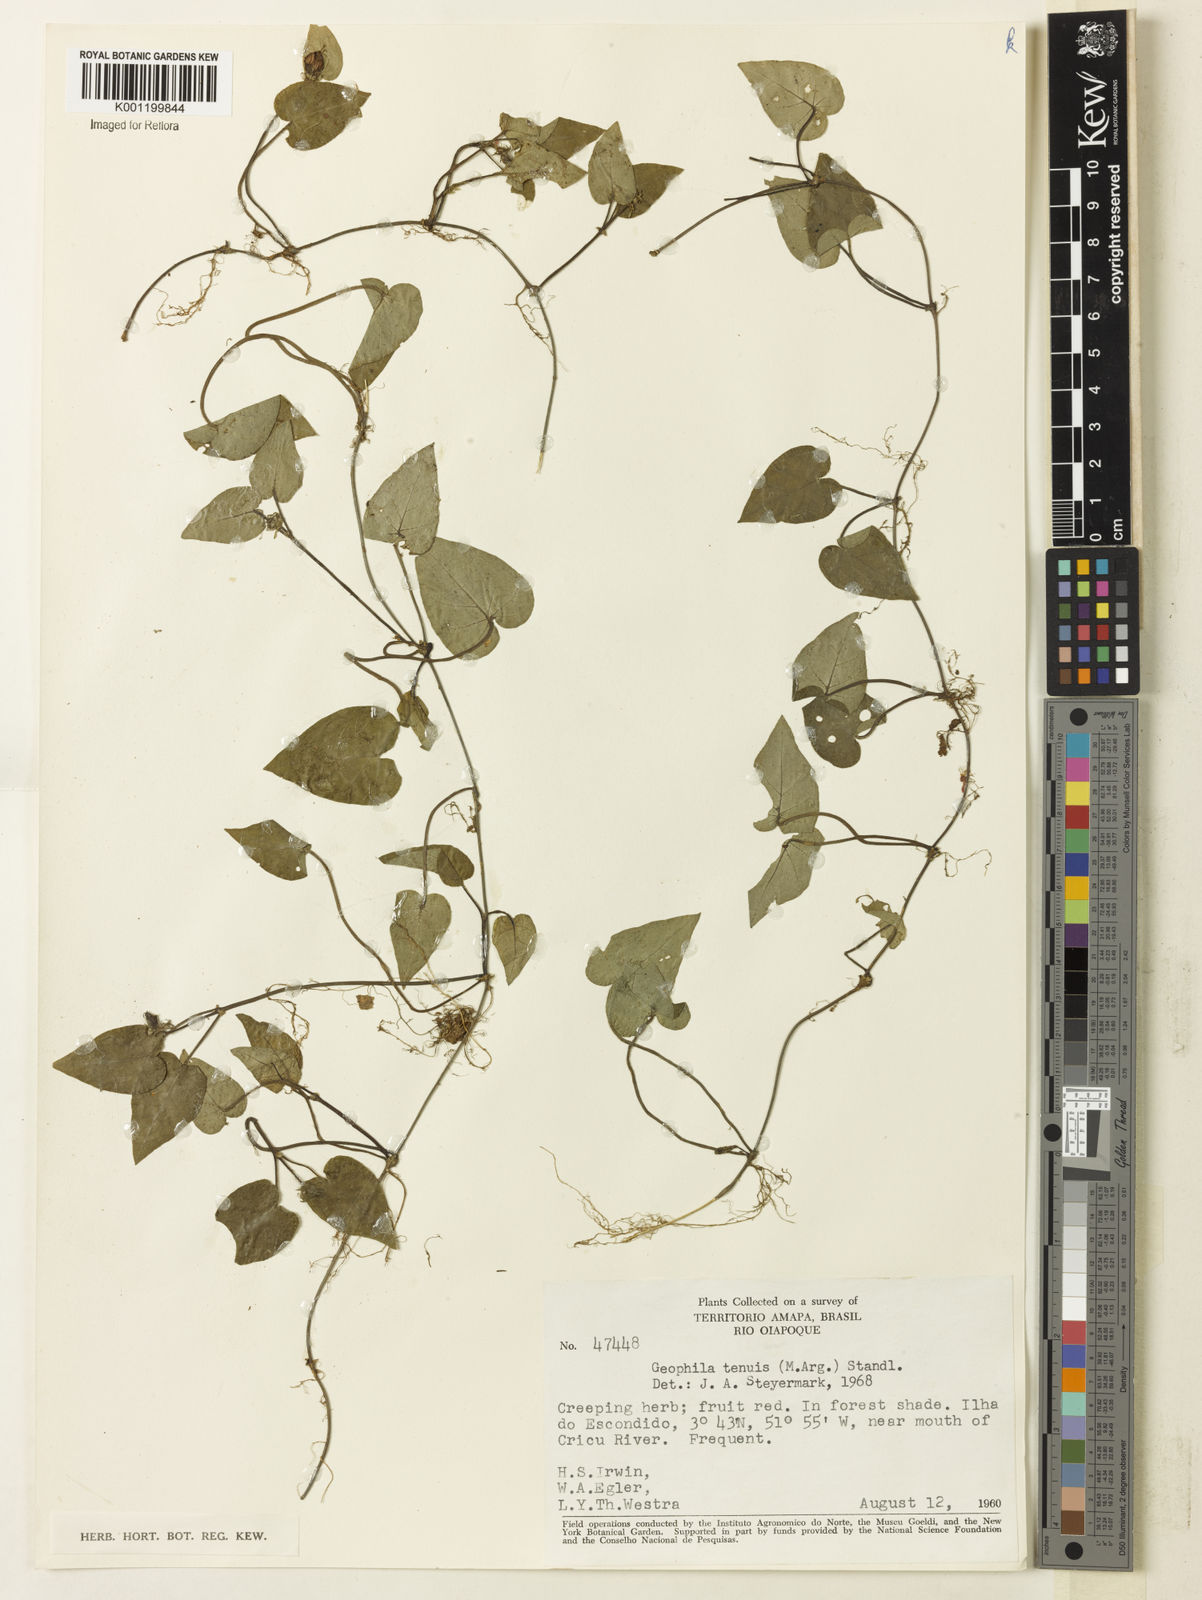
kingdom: Plantae
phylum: Tracheophyta
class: Magnoliopsida
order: Gentianales
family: Rubiaceae
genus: Geophila
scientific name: Geophila
